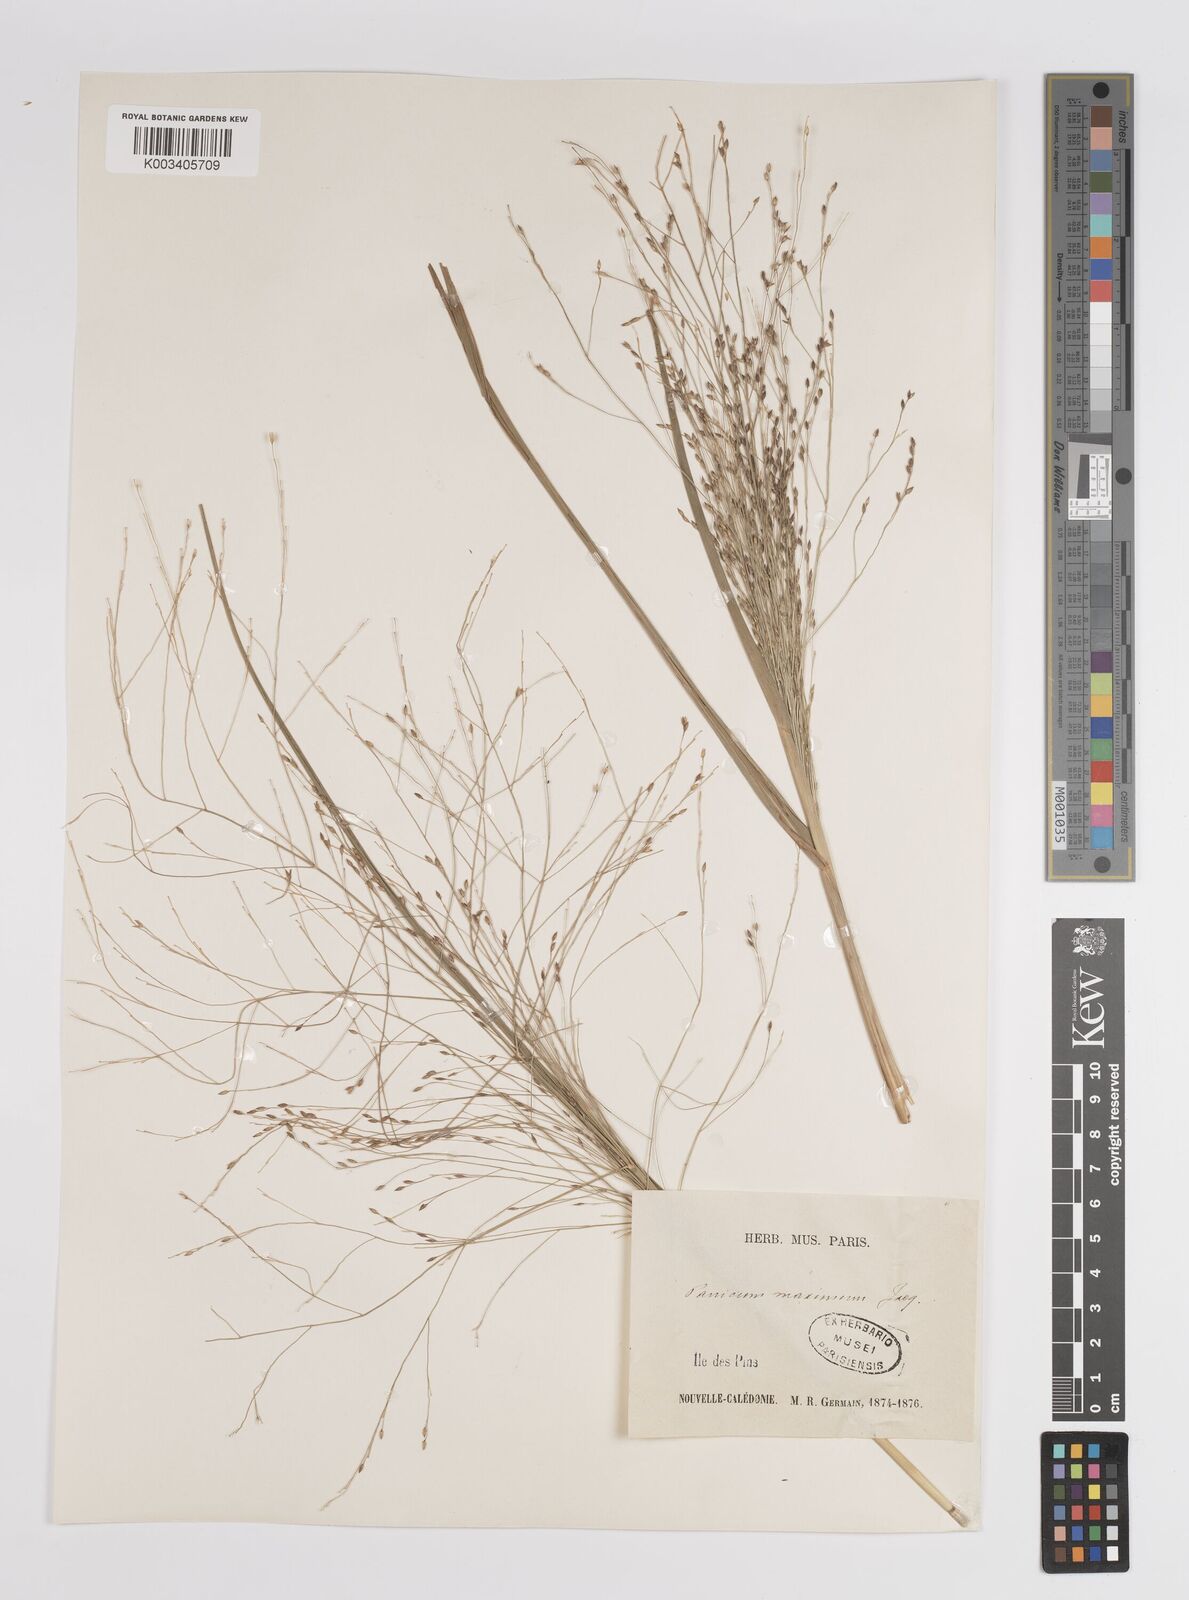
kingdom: Plantae
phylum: Tracheophyta
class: Liliopsida
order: Poales
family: Poaceae
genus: Megathyrsus
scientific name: Megathyrsus maximus
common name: Guineagrass
